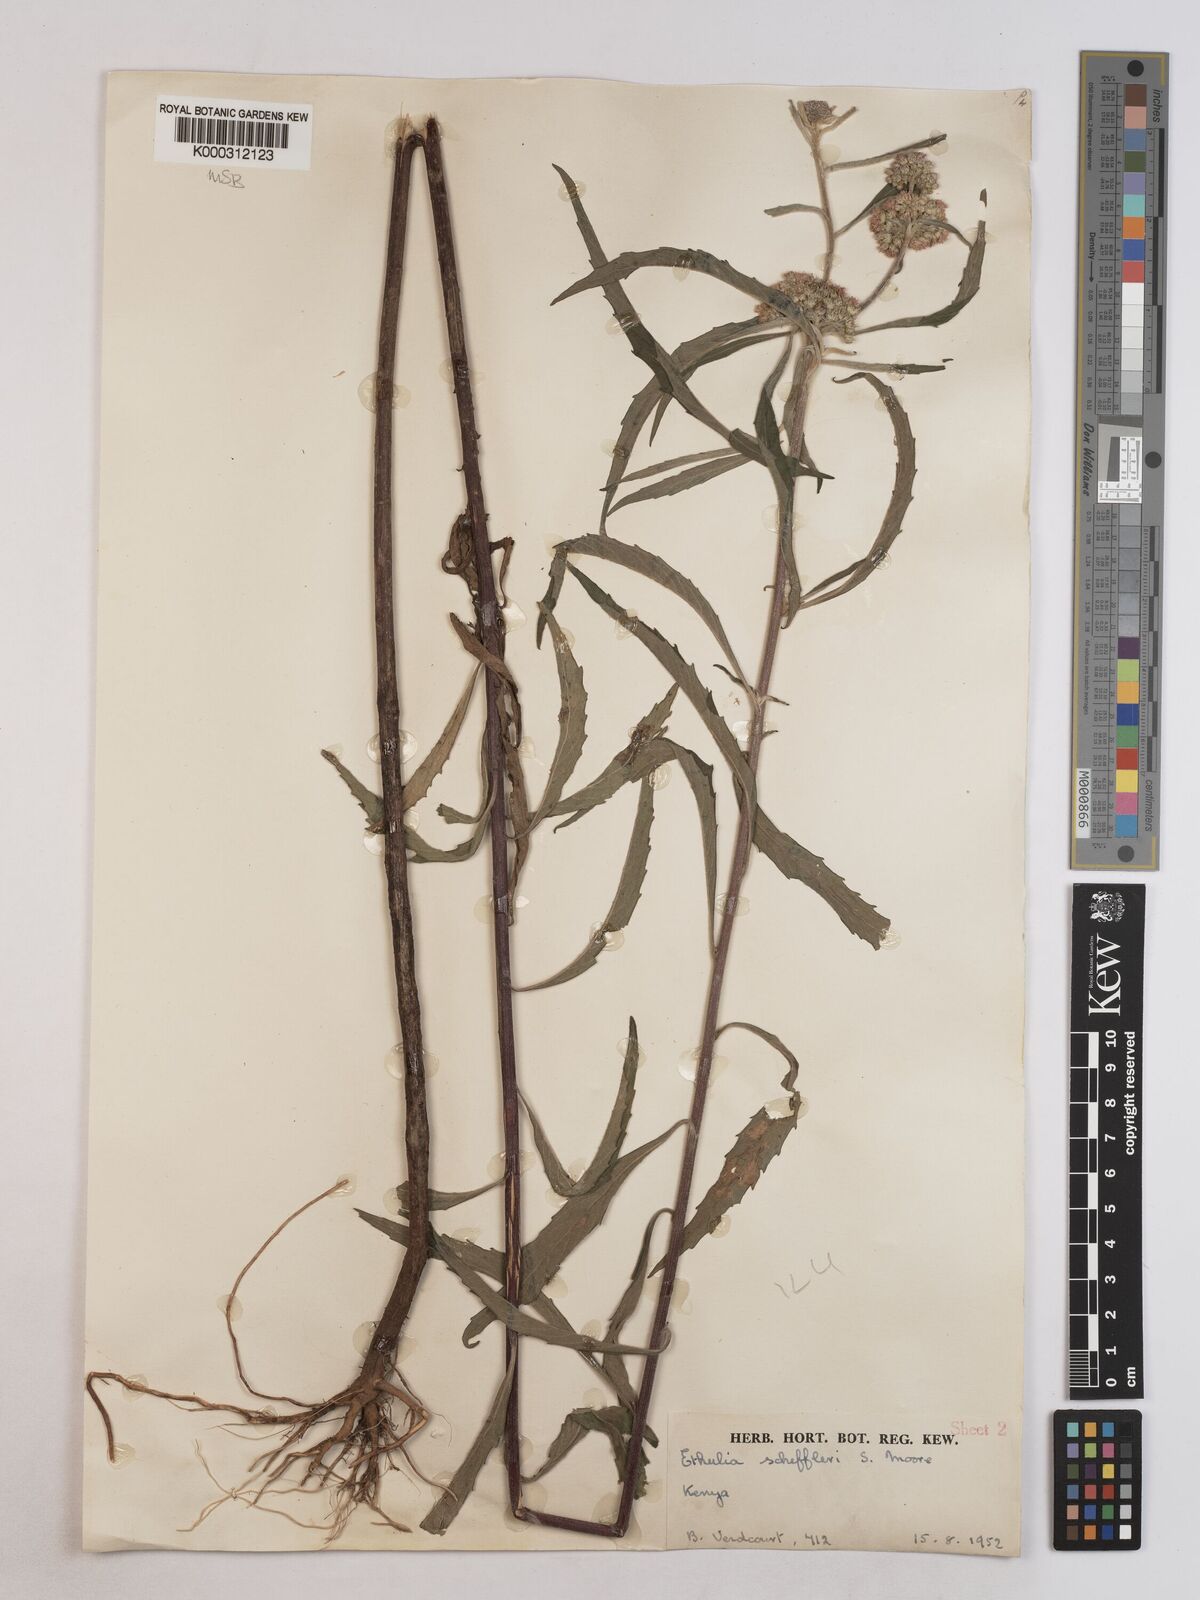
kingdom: Plantae
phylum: Tracheophyta
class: Magnoliopsida
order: Asterales
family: Asteraceae
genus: Ethulia
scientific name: Ethulia bicostata
